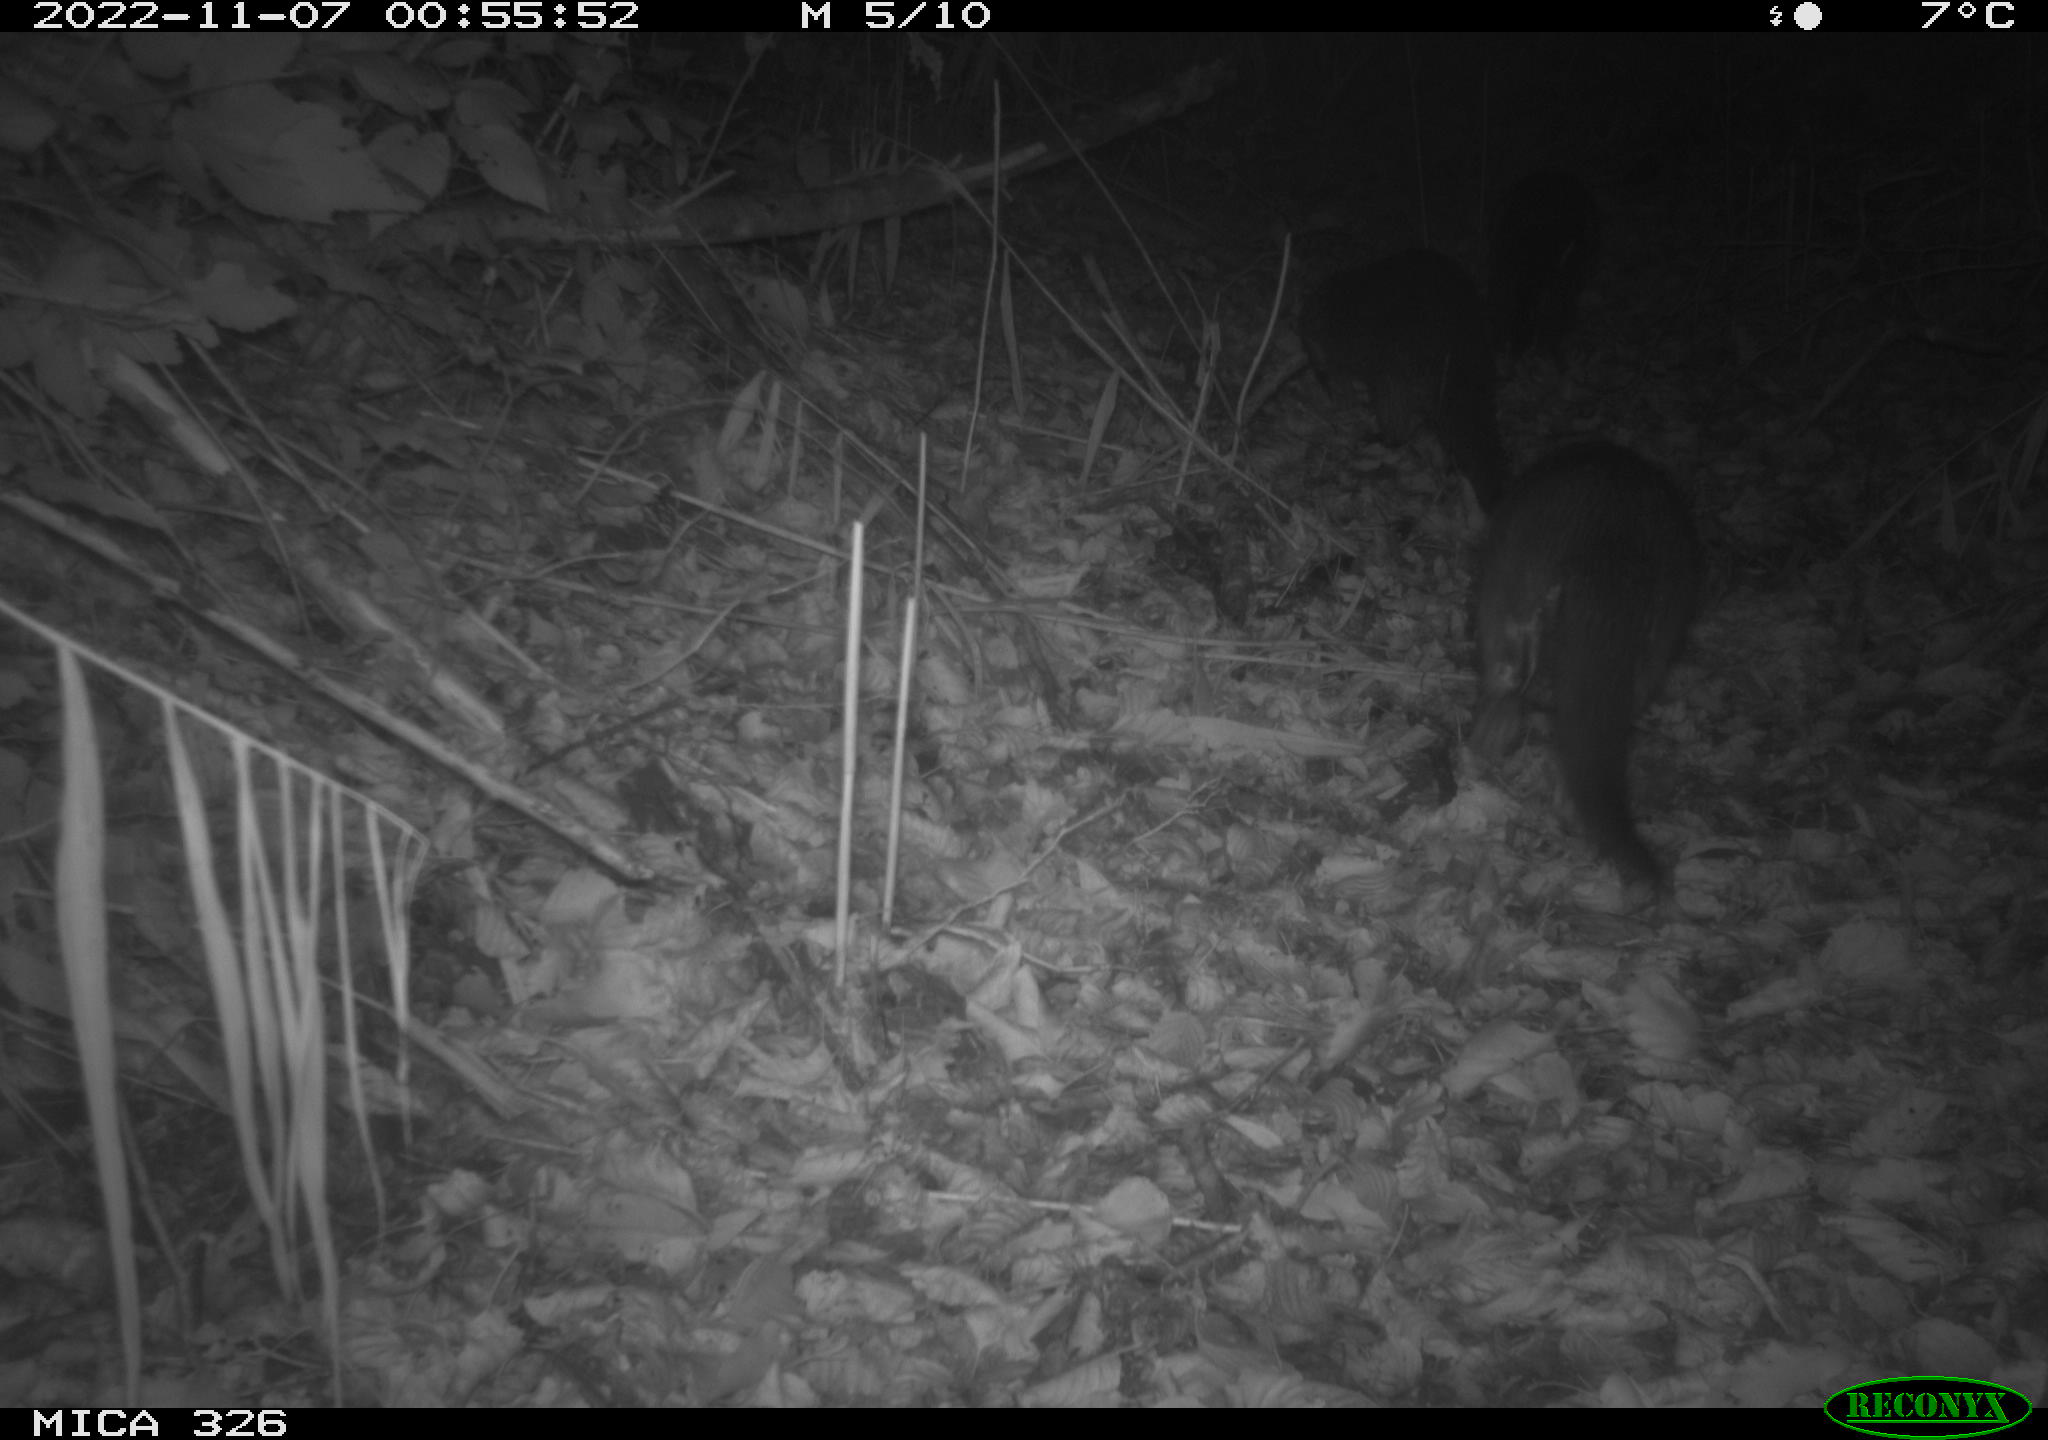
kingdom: Animalia
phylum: Chordata
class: Mammalia
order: Carnivora
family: Mustelidae
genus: Lutra
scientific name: Lutra lutra
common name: European otter
